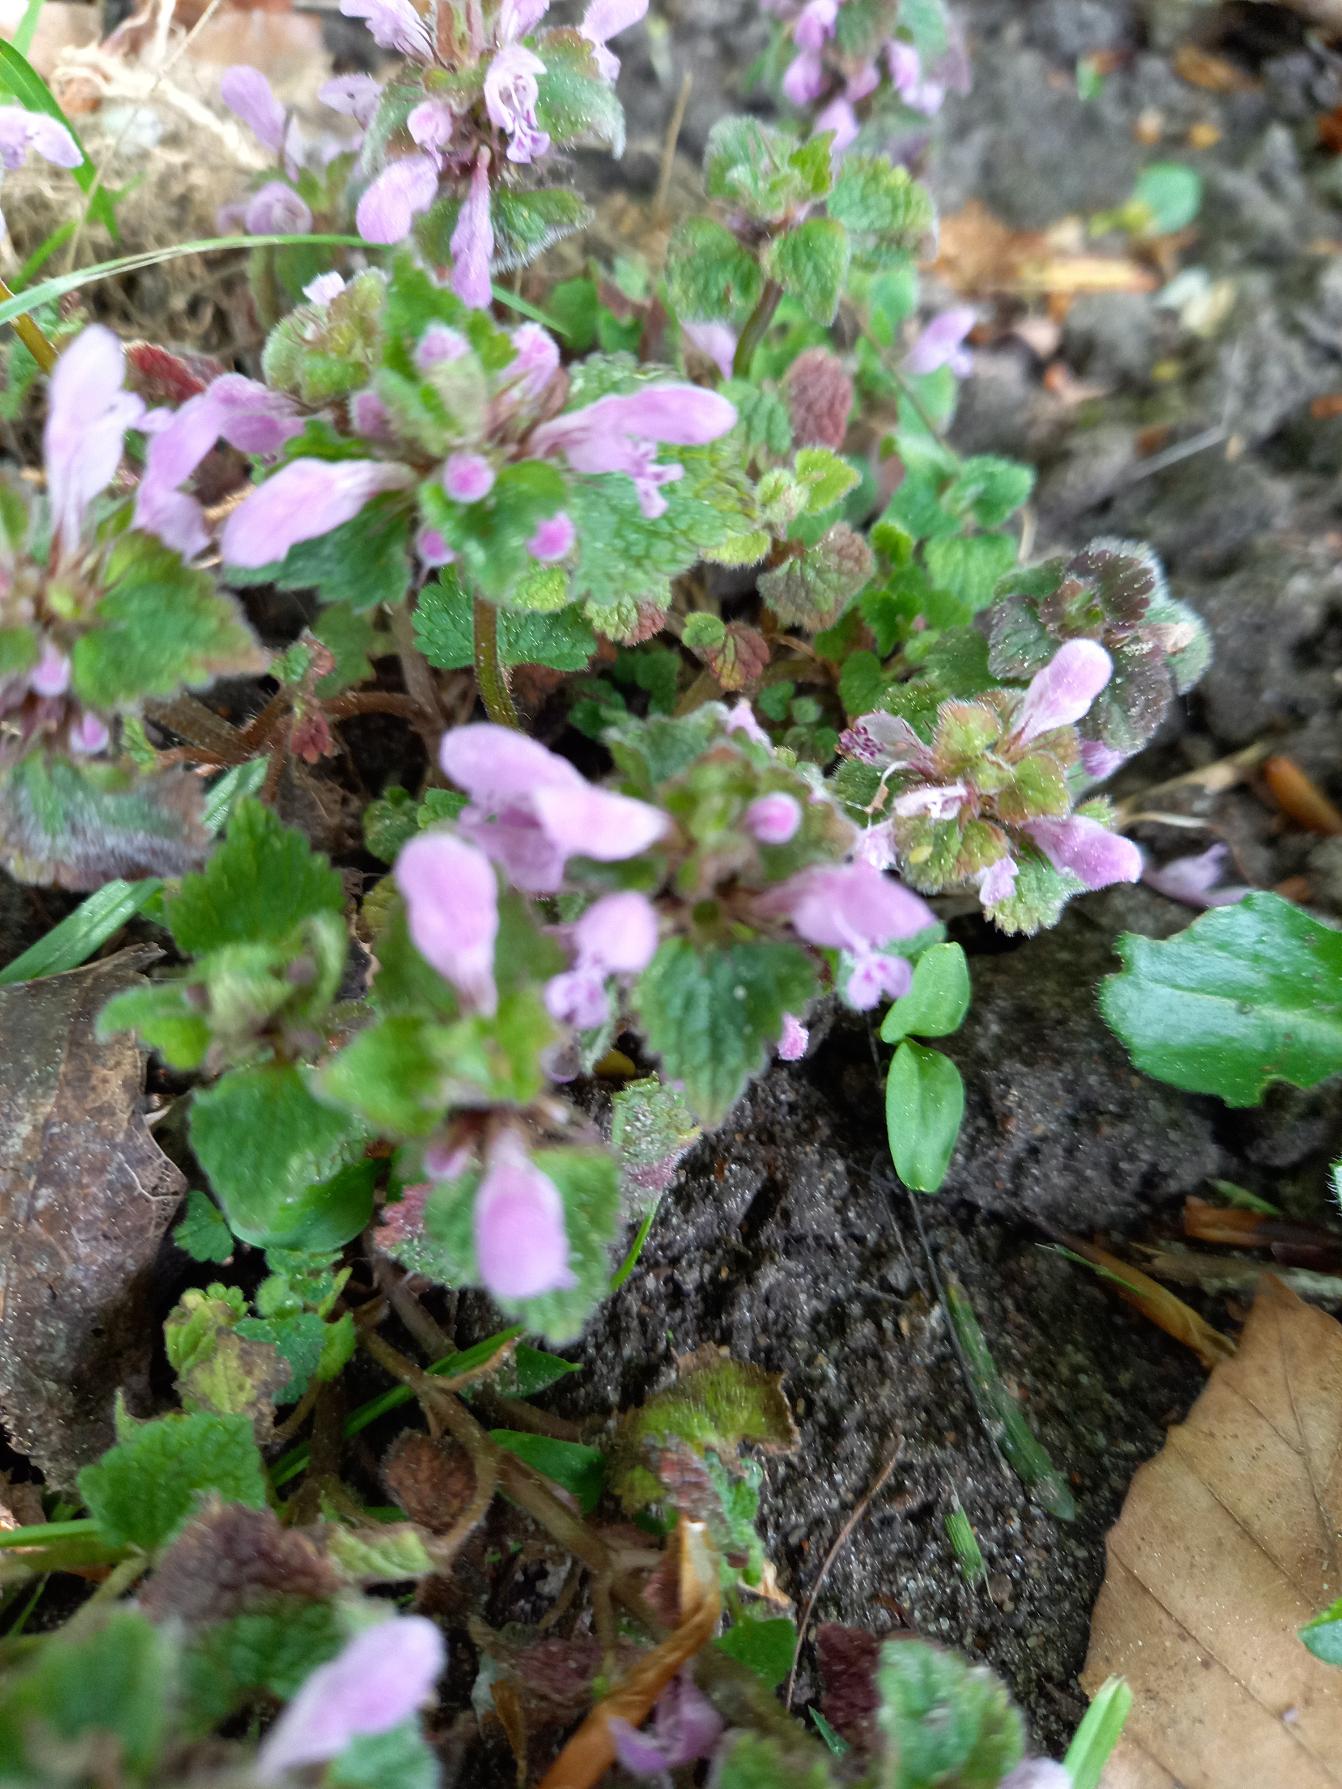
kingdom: Plantae
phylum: Tracheophyta
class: Magnoliopsida
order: Lamiales
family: Lamiaceae
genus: Lamium
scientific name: Lamium purpureum
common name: Rød tvetand
